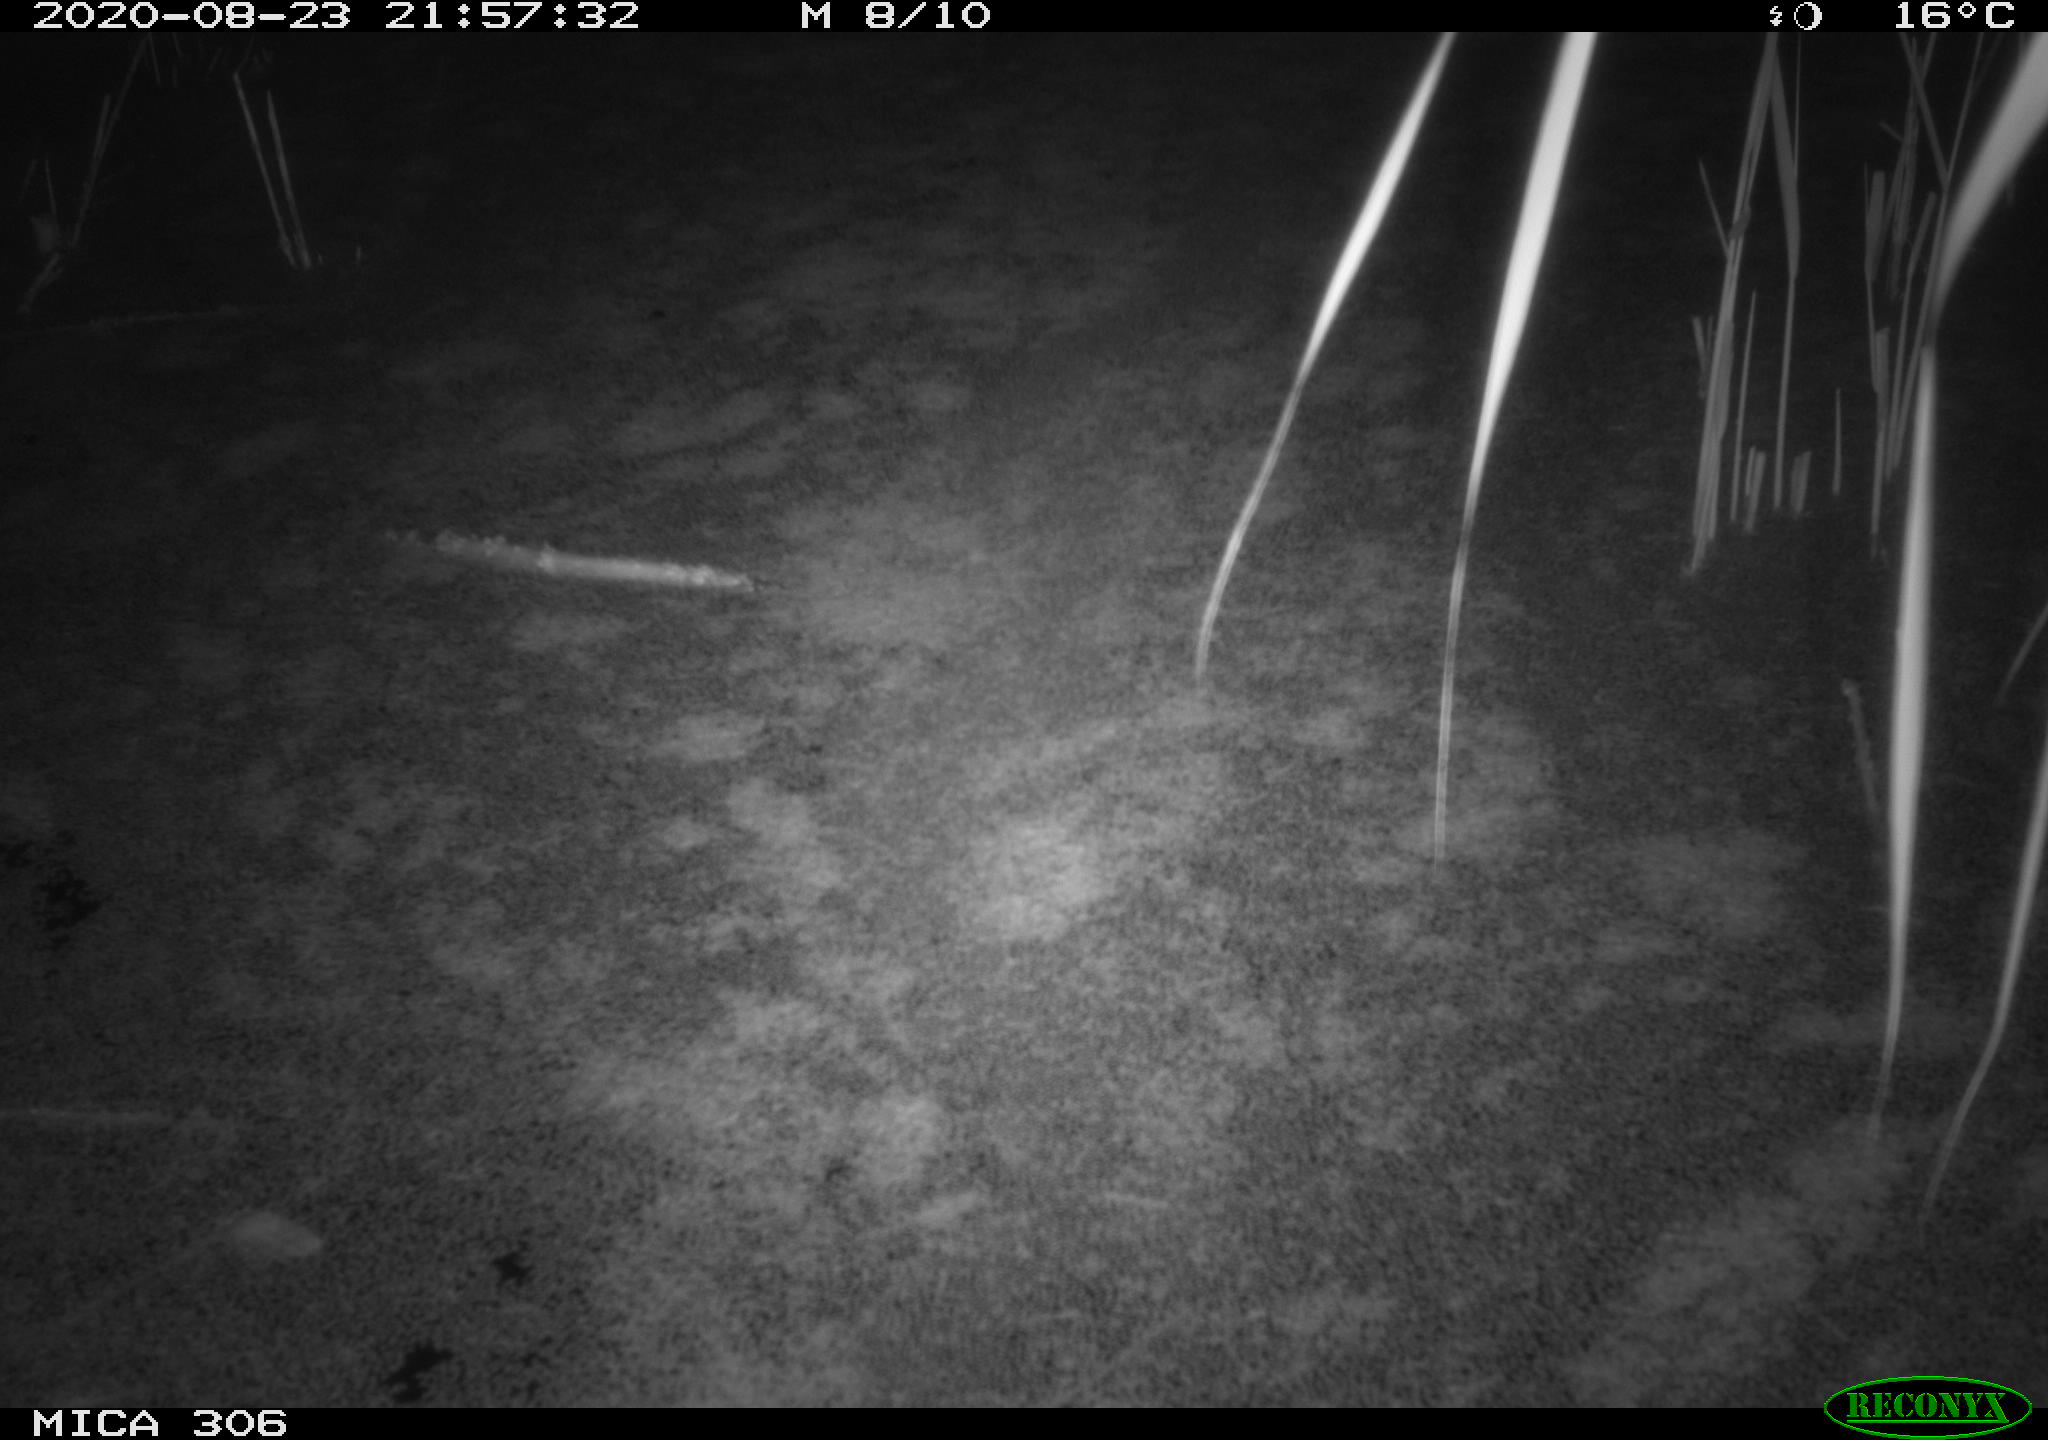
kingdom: Animalia
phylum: Chordata
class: Mammalia
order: Rodentia
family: Muridae
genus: Rattus
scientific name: Rattus norvegicus
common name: Brown rat
